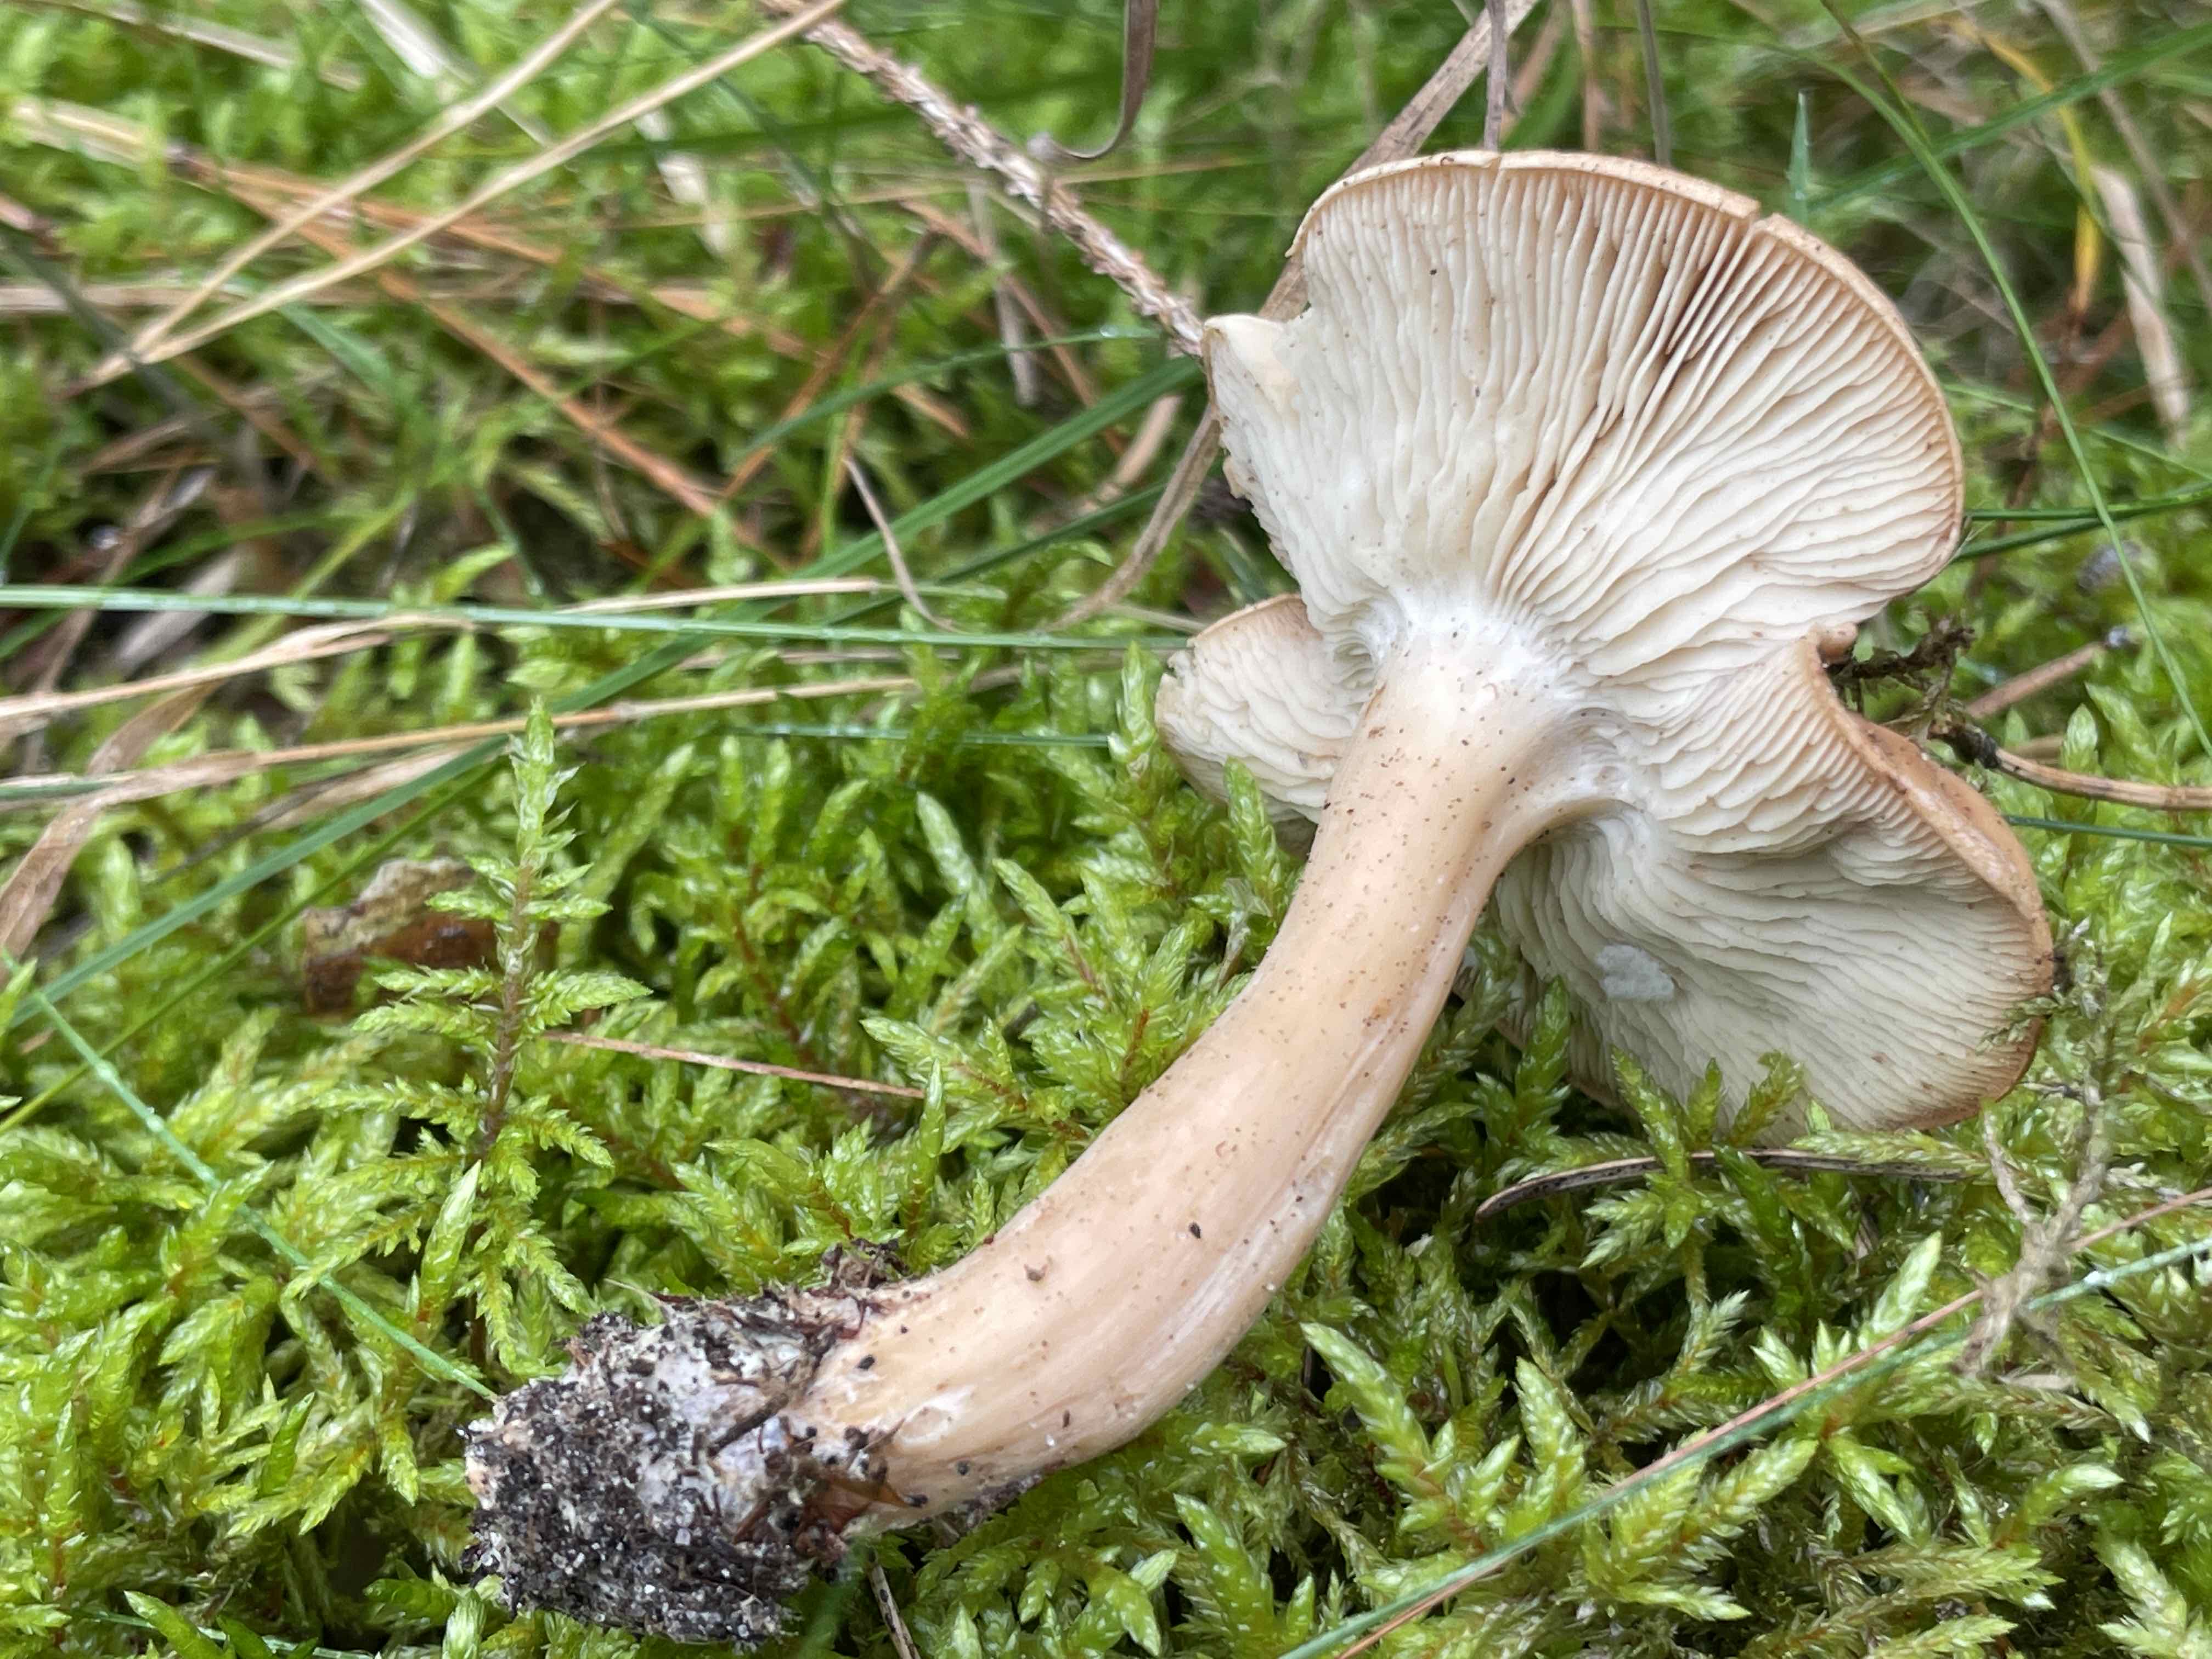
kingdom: Fungi
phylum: Basidiomycota
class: Agaricomycetes
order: Agaricales
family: Lyophyllaceae
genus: Gerhardtia
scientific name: Gerhardtia borealis
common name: rosabrun fagerhat
